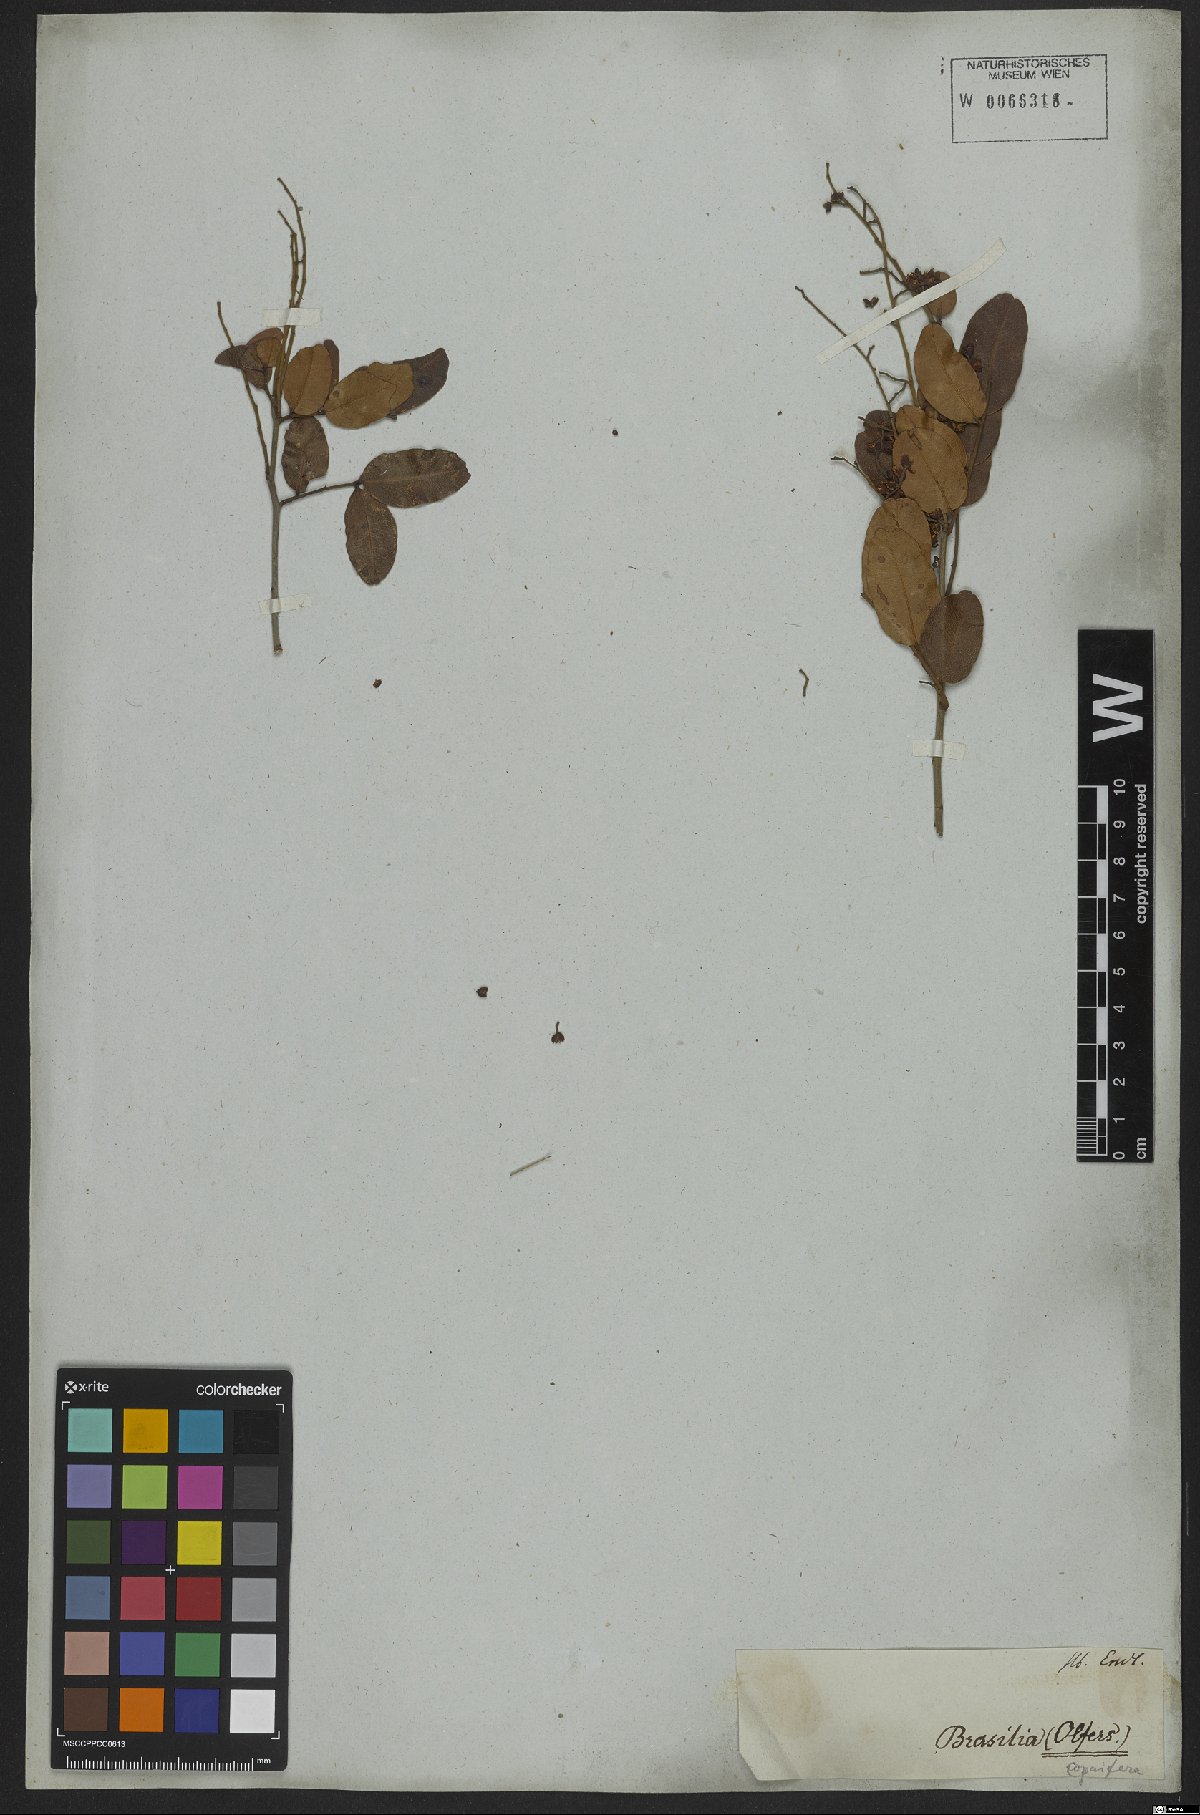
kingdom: Plantae
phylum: Tracheophyta
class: Magnoliopsida
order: Fabales
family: Fabaceae
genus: Copaifera
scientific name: Copaifera
